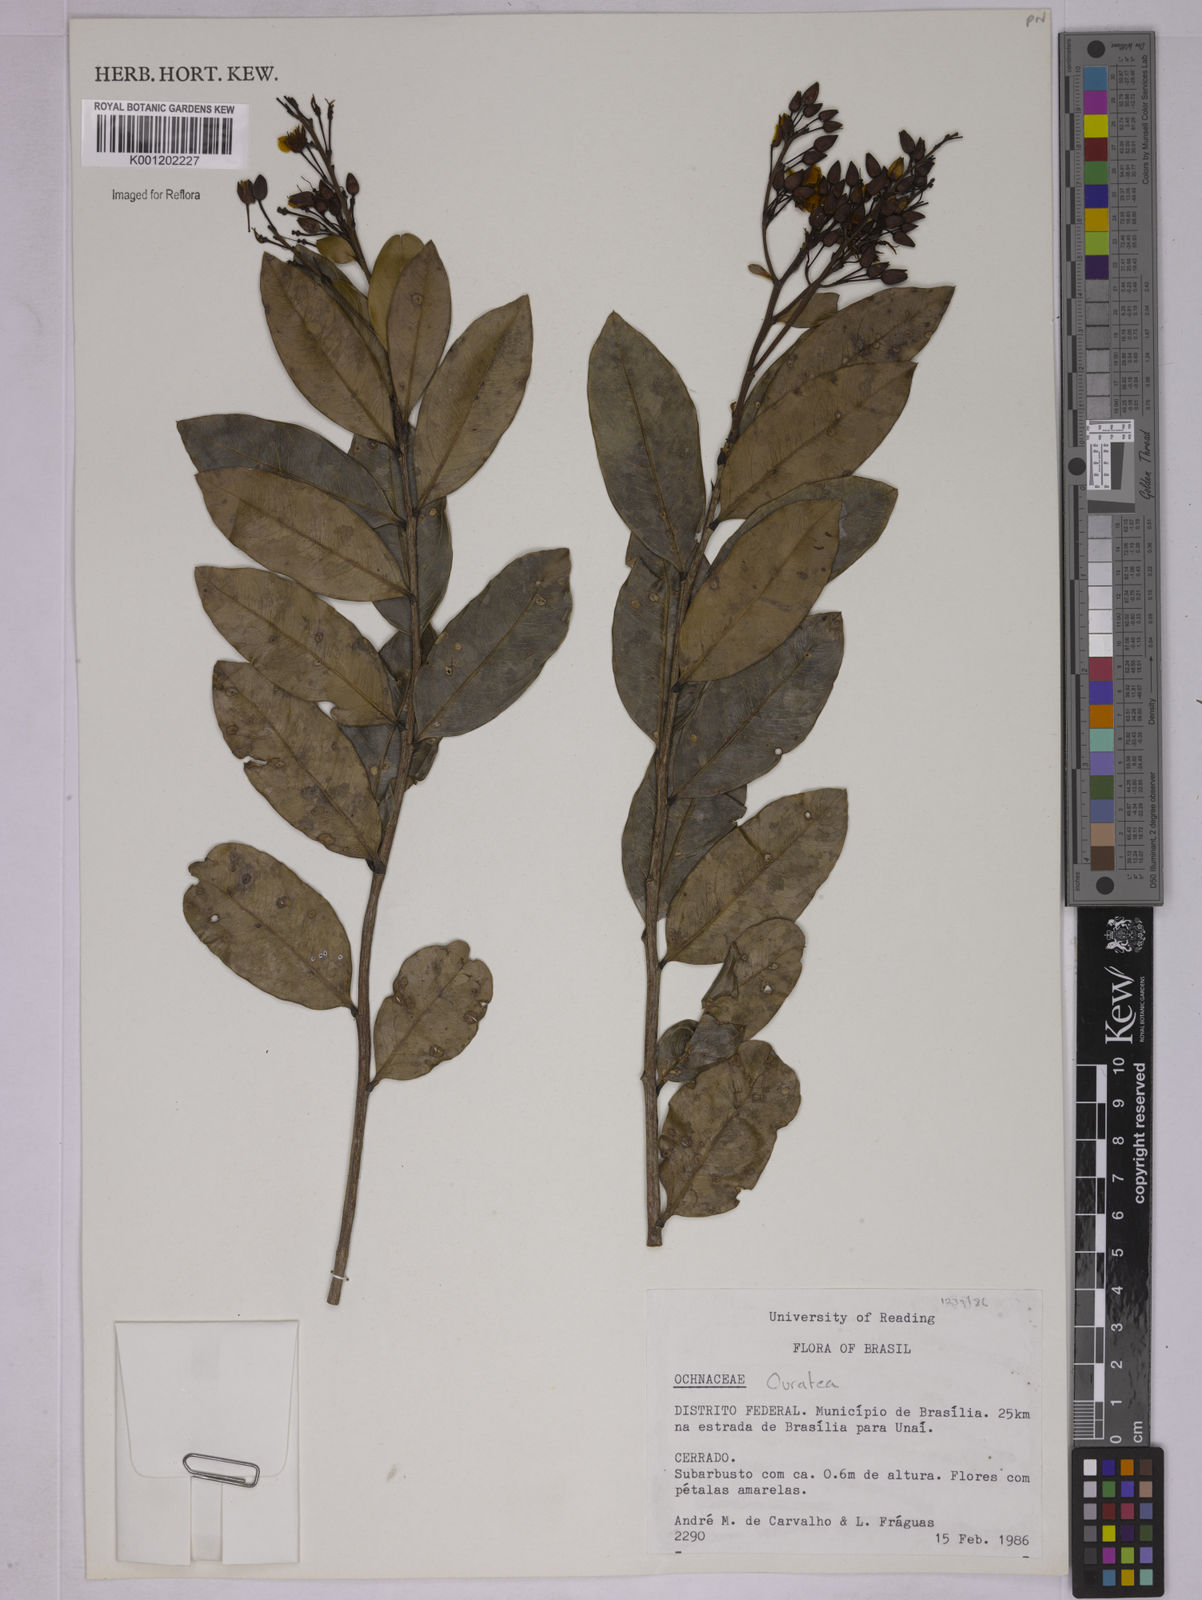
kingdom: Plantae
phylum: Tracheophyta
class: Magnoliopsida
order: Malpighiales
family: Ochnaceae
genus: Ouratea
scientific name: Ouratea
